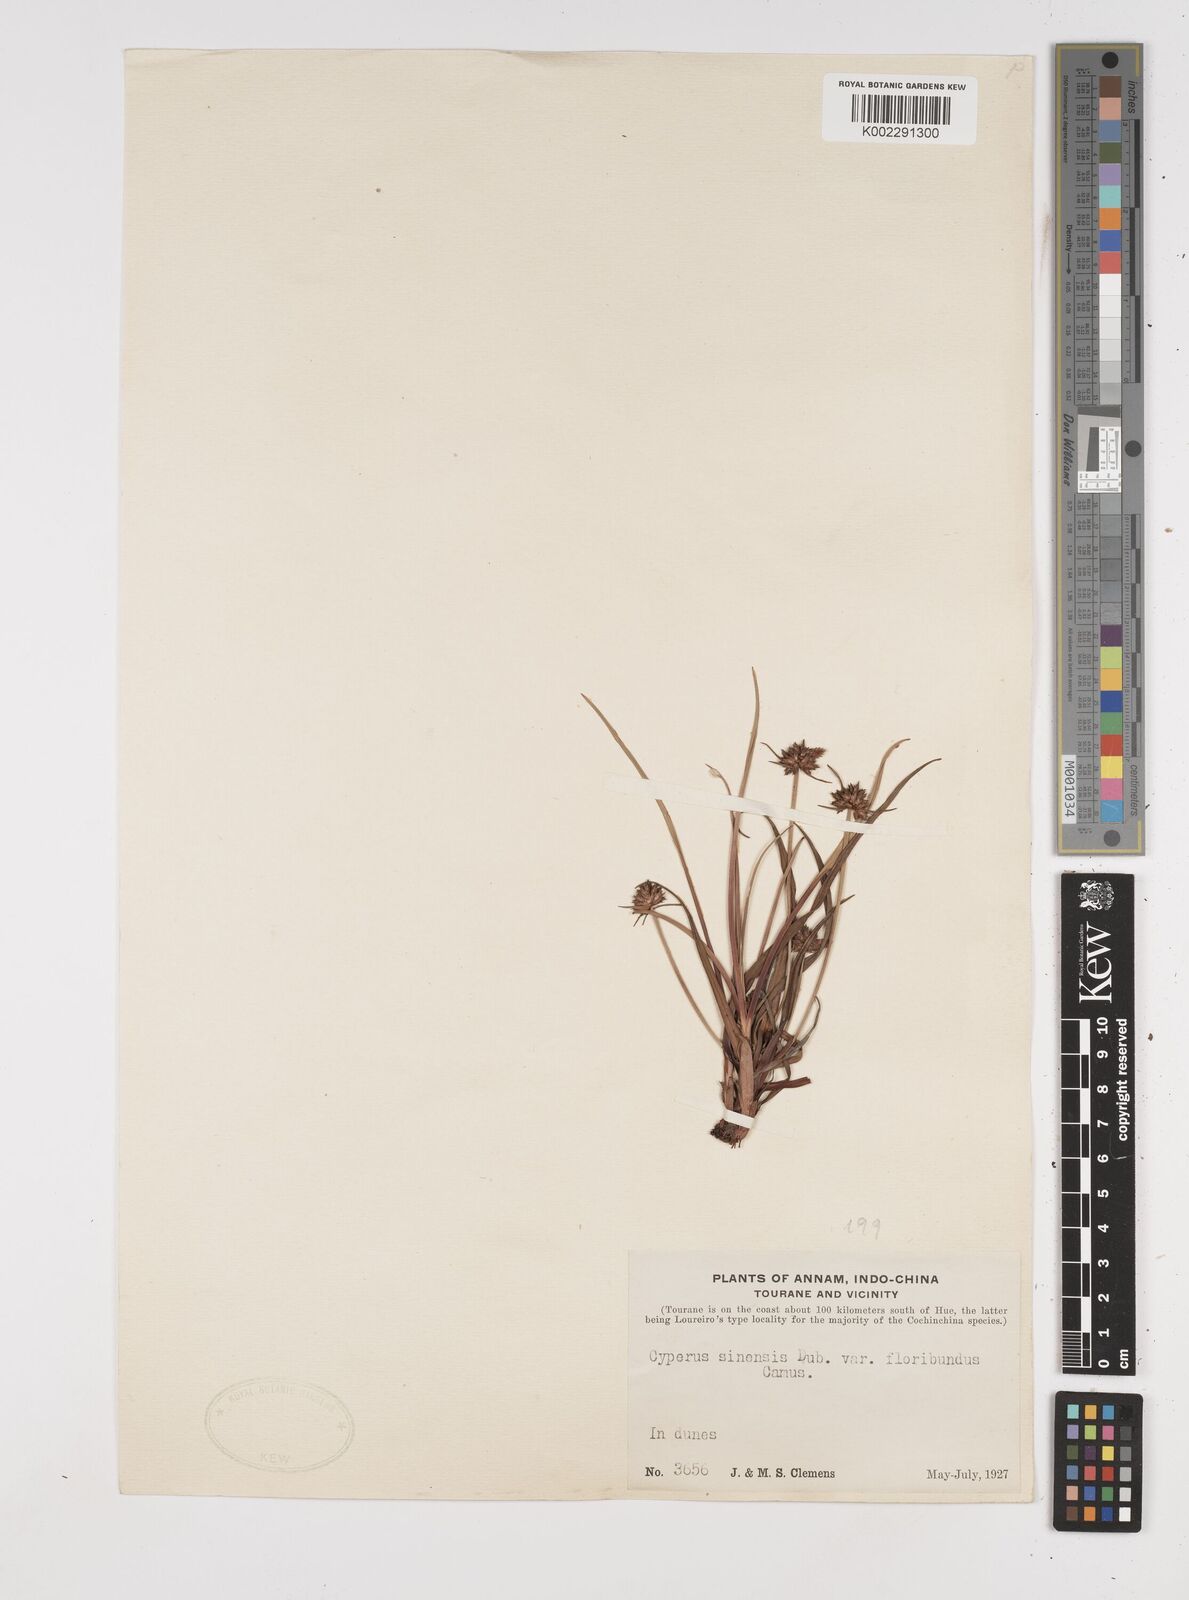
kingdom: Plantae
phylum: Tracheophyta
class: Liliopsida
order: Poales
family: Cyperaceae
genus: Cyperus
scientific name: Cyperus radians
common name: Short-stem cyperus
